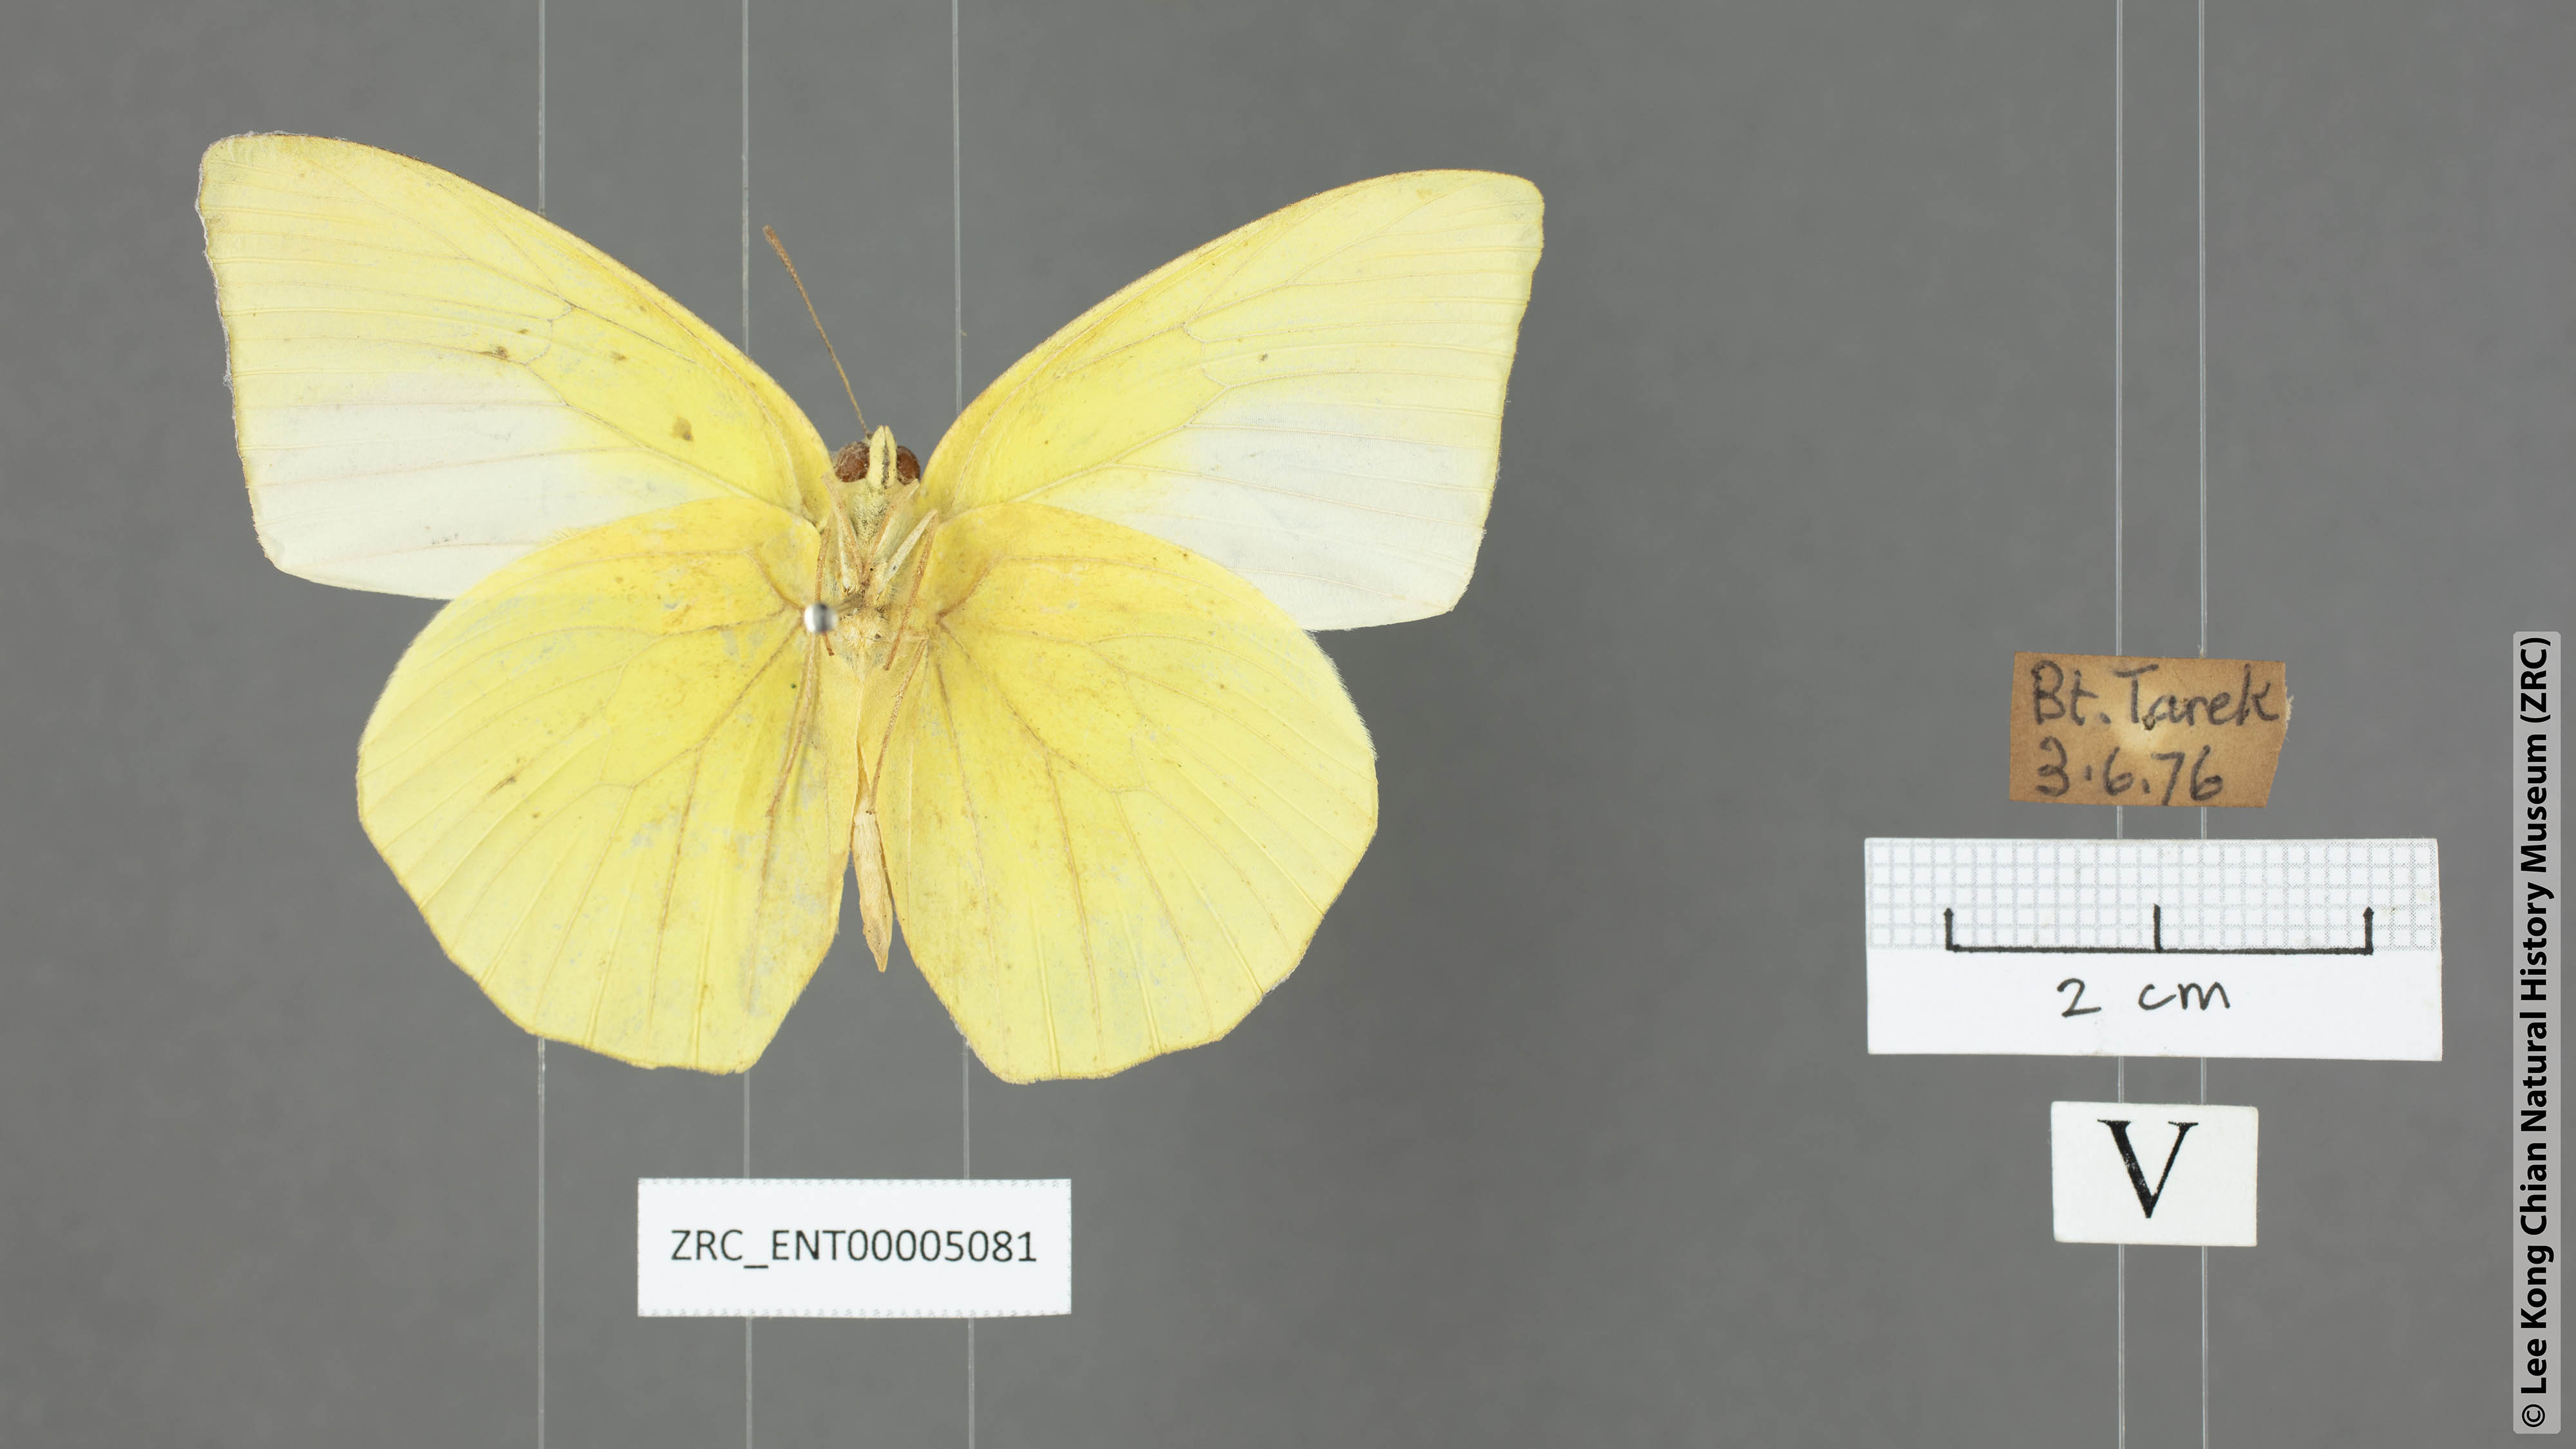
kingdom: Animalia
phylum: Arthropoda
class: Insecta
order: Lepidoptera
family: Pieridae
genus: Catopsilia
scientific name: Catopsilia pomona
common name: Common emigrant
